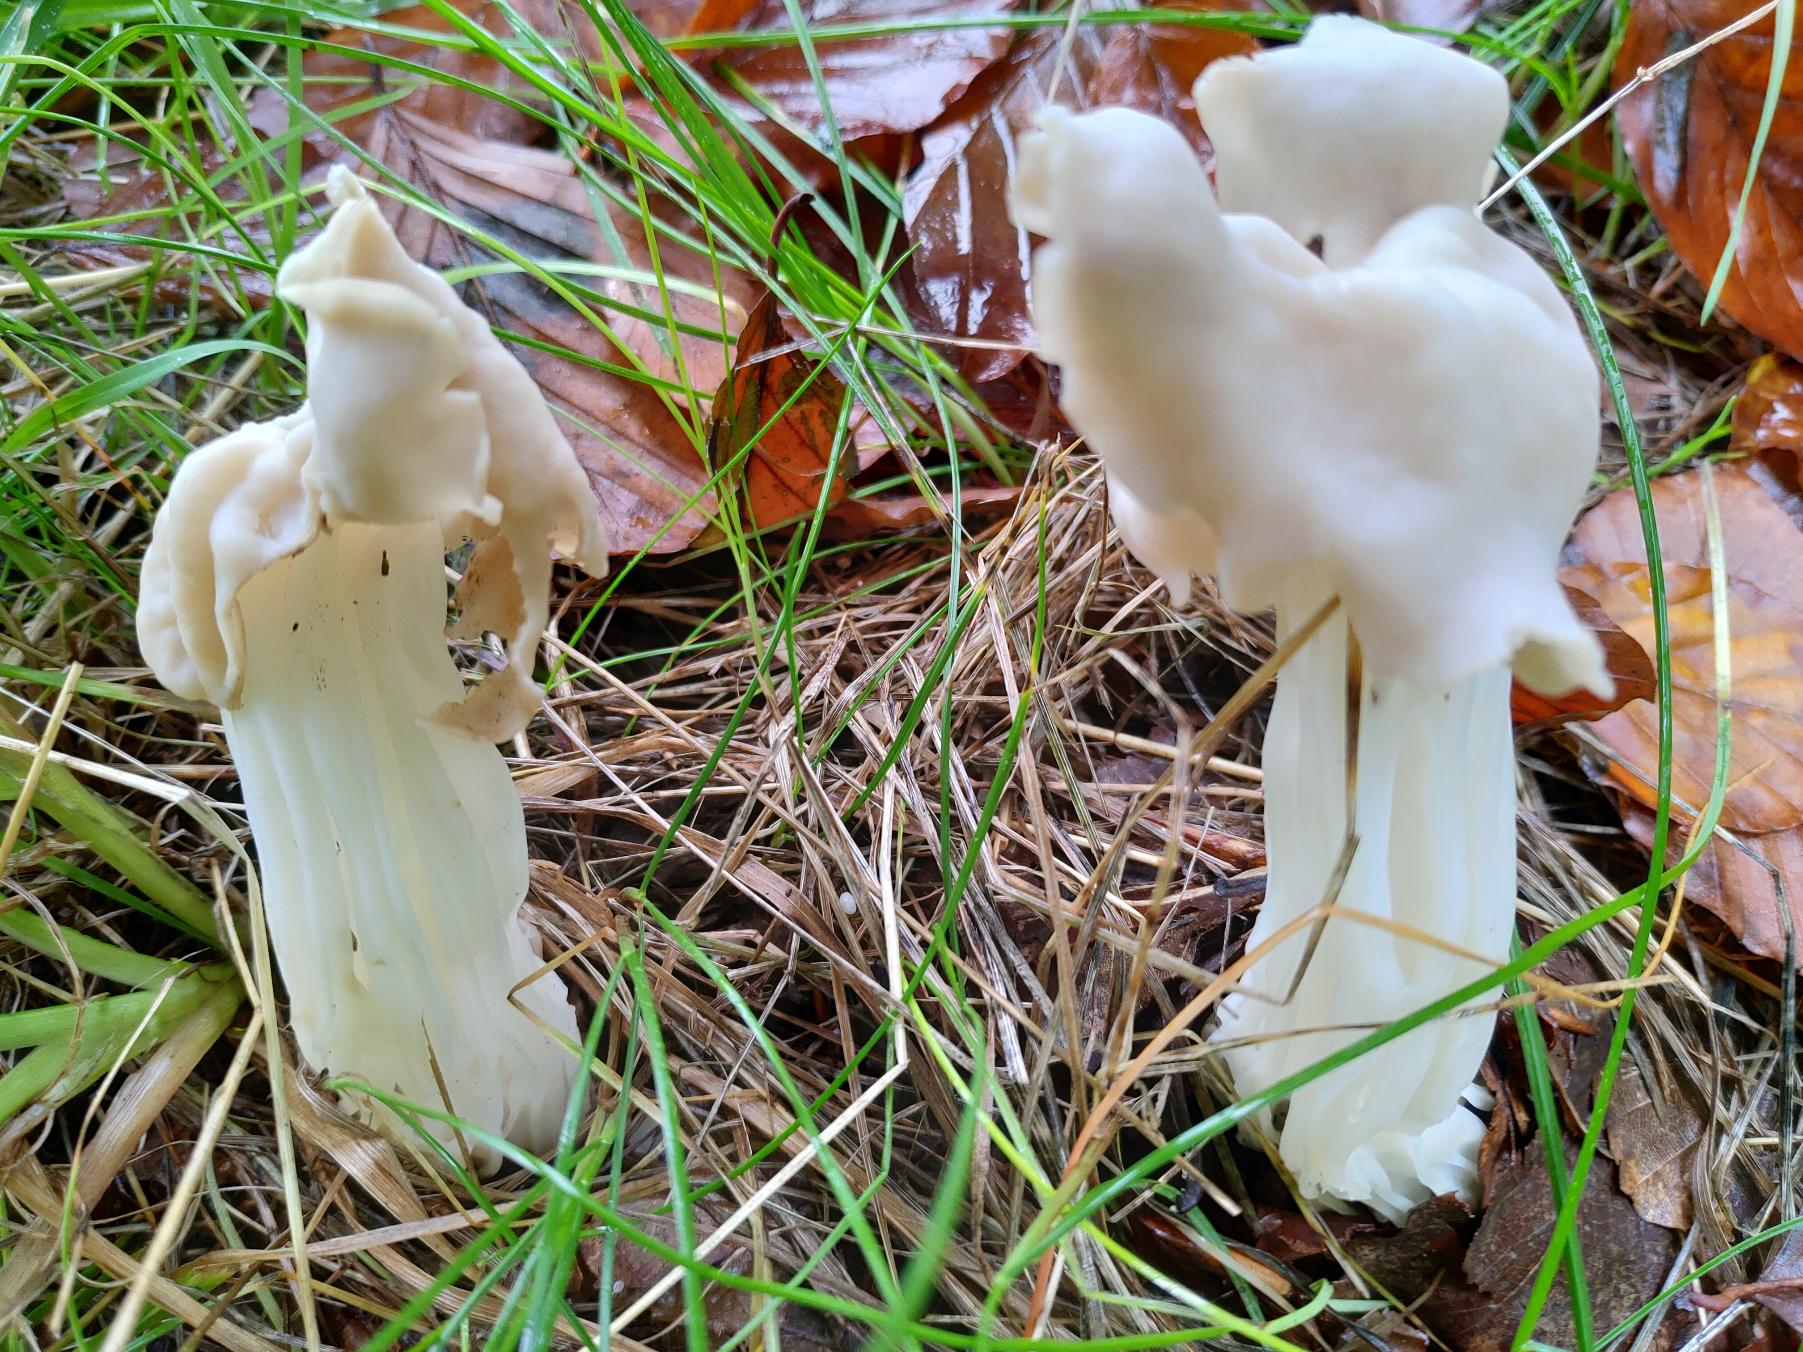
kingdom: Fungi
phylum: Ascomycota
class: Pezizomycetes
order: Pezizales
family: Helvellaceae
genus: Helvella
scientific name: Helvella crispa
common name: Kruset foldhat
